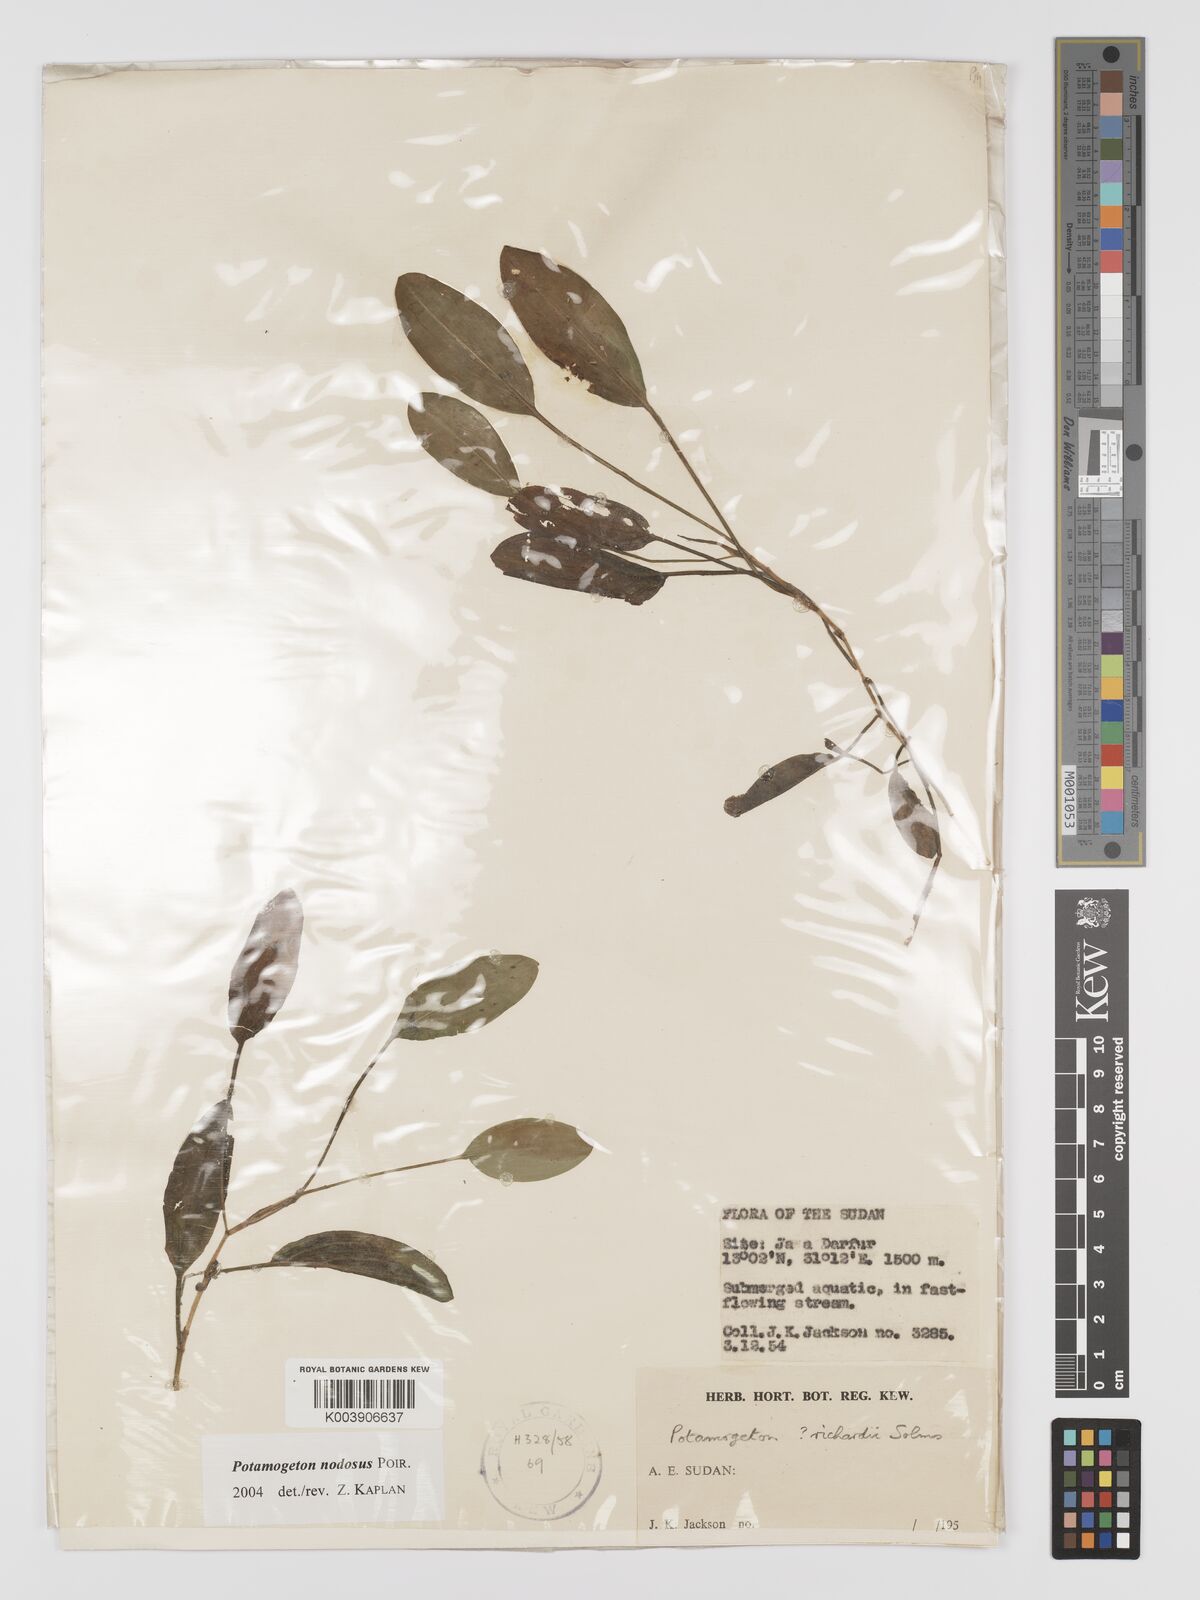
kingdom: Plantae
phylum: Tracheophyta
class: Liliopsida
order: Alismatales
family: Potamogetonaceae
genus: Potamogeton
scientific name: Potamogeton nodosus
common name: Loddon pondweed
